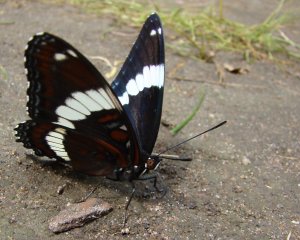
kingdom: Animalia
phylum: Arthropoda
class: Insecta
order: Lepidoptera
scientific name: Lepidoptera
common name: Butterflies
